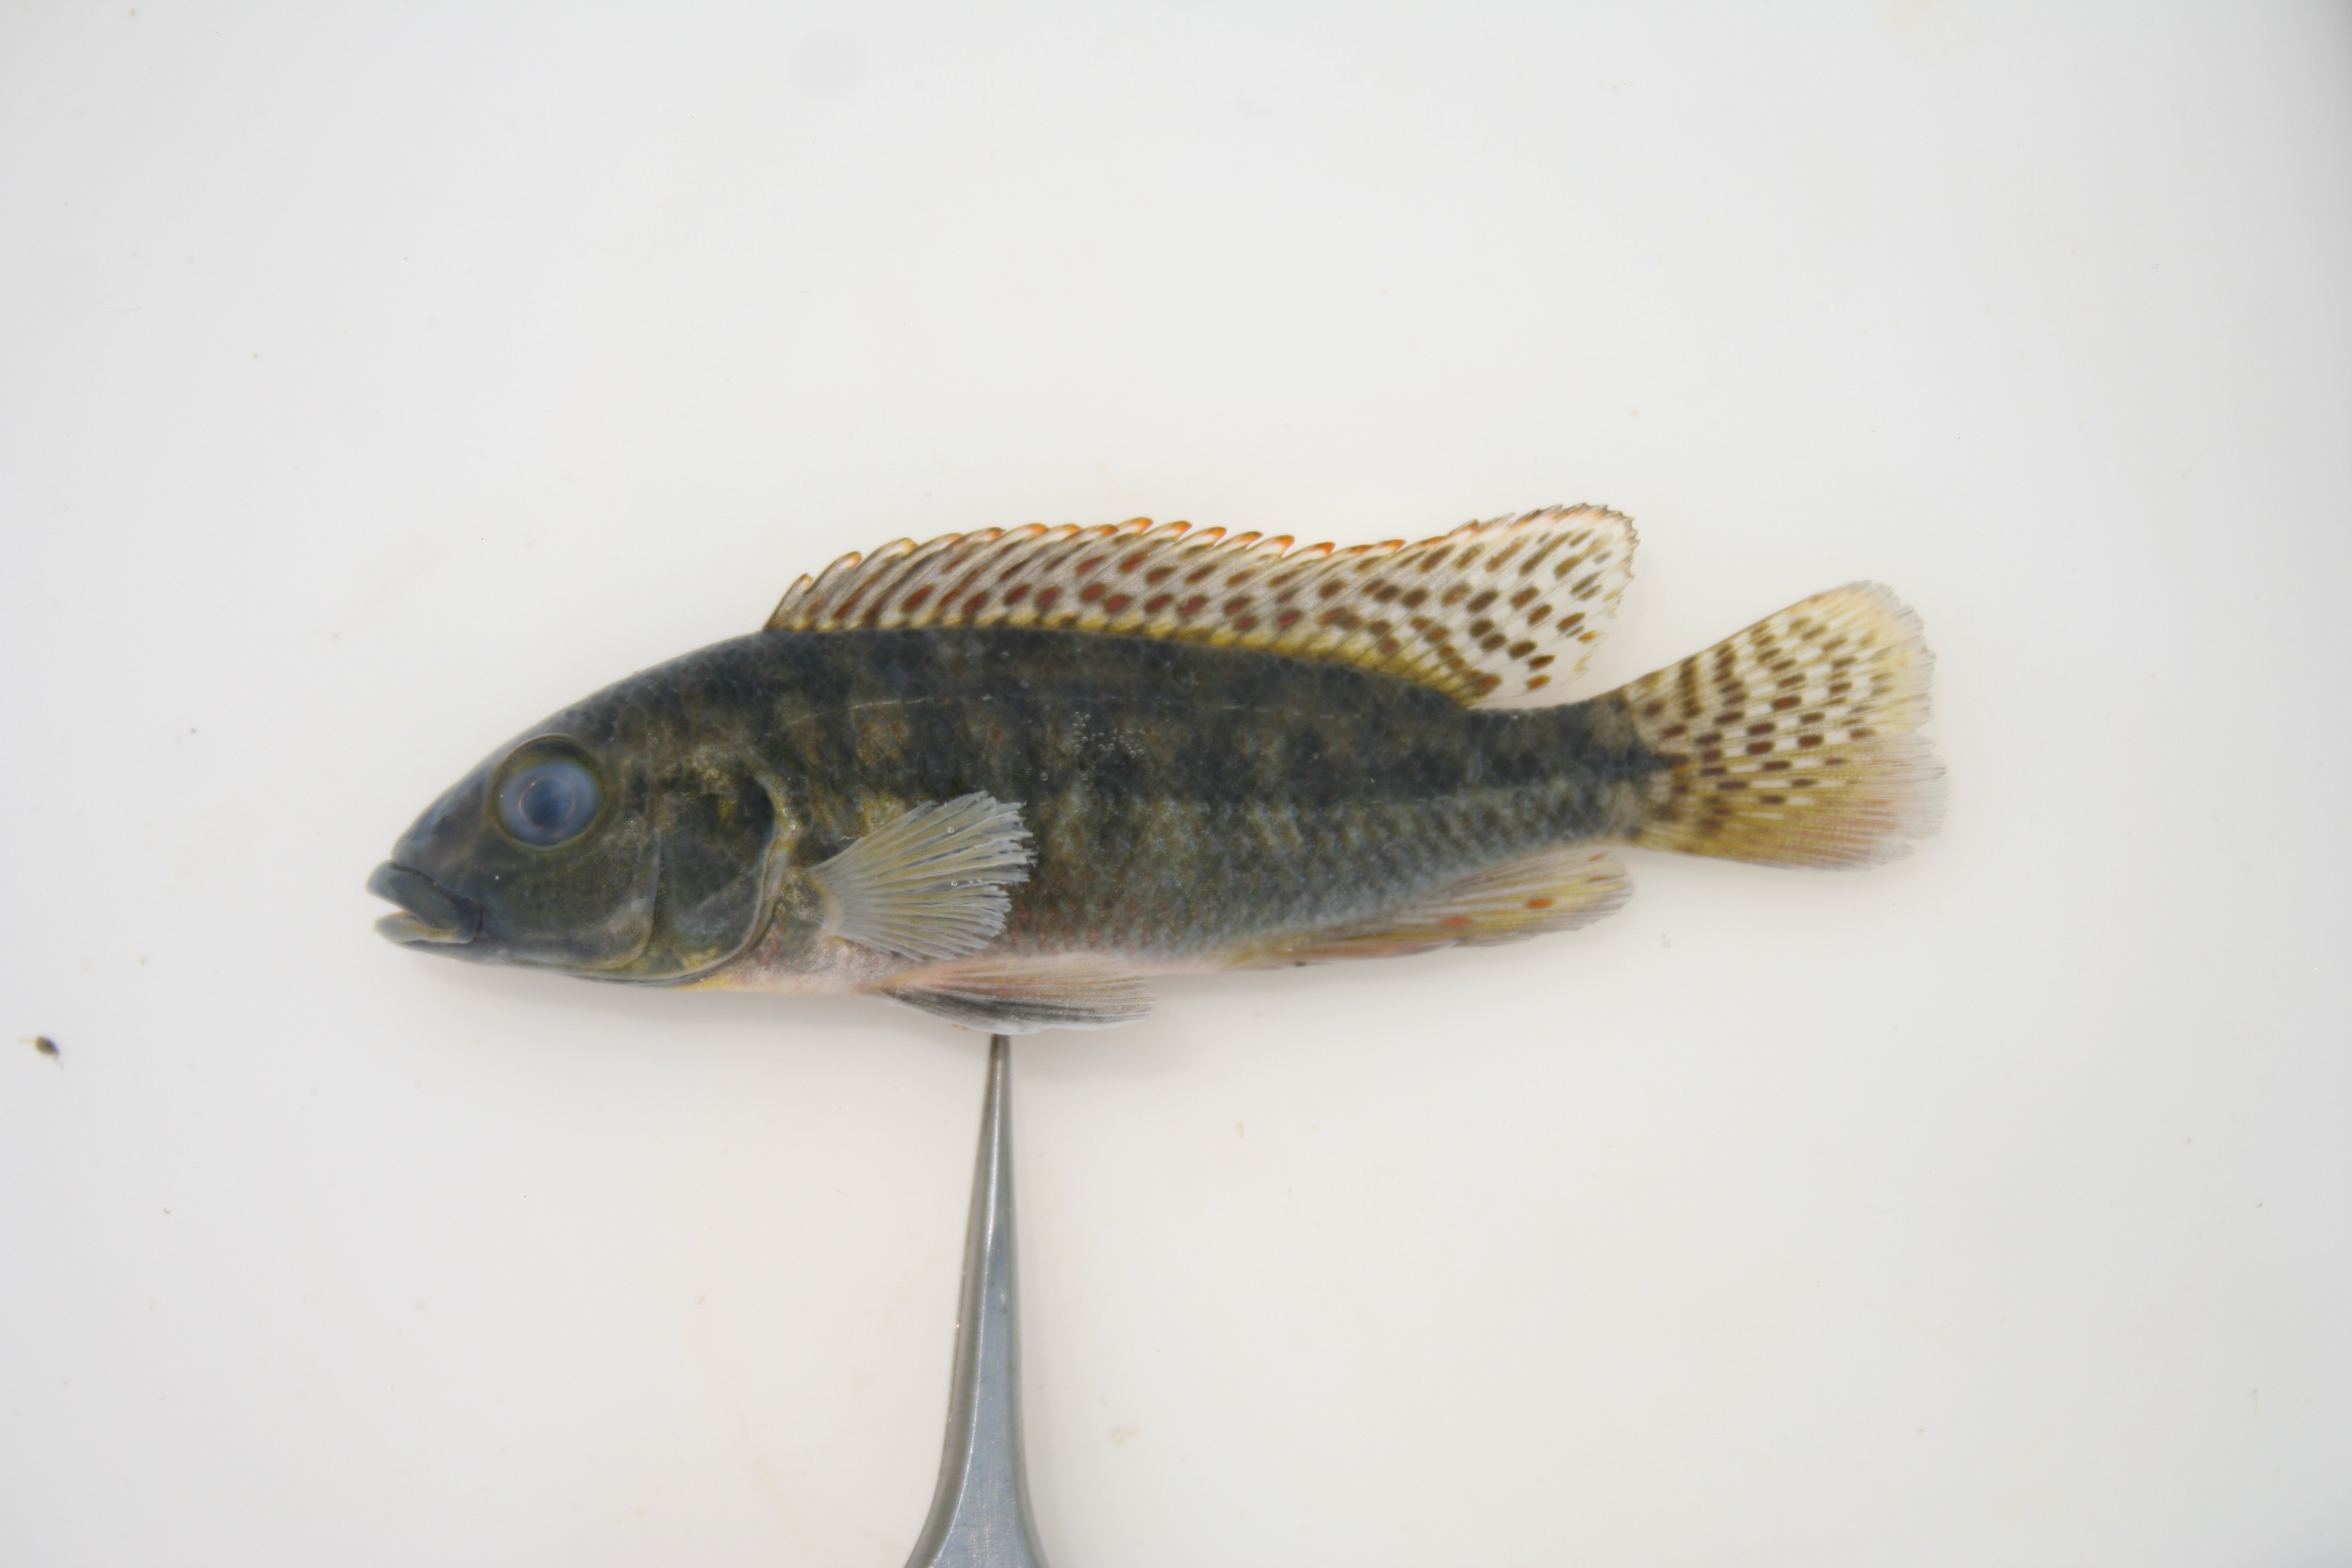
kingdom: Animalia
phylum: Chordata
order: Perciformes
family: Cichlidae
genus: Pharyngochromis
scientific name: Pharyngochromis
